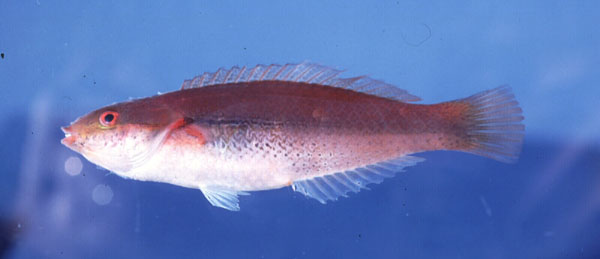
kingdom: Animalia
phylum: Chordata
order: Perciformes
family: Labridae
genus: Stethojulis
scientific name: Stethojulis interrupta
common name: Cutribbon wrasse
